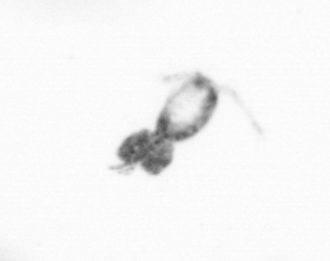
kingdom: Animalia
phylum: Arthropoda
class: Copepoda
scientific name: Copepoda
